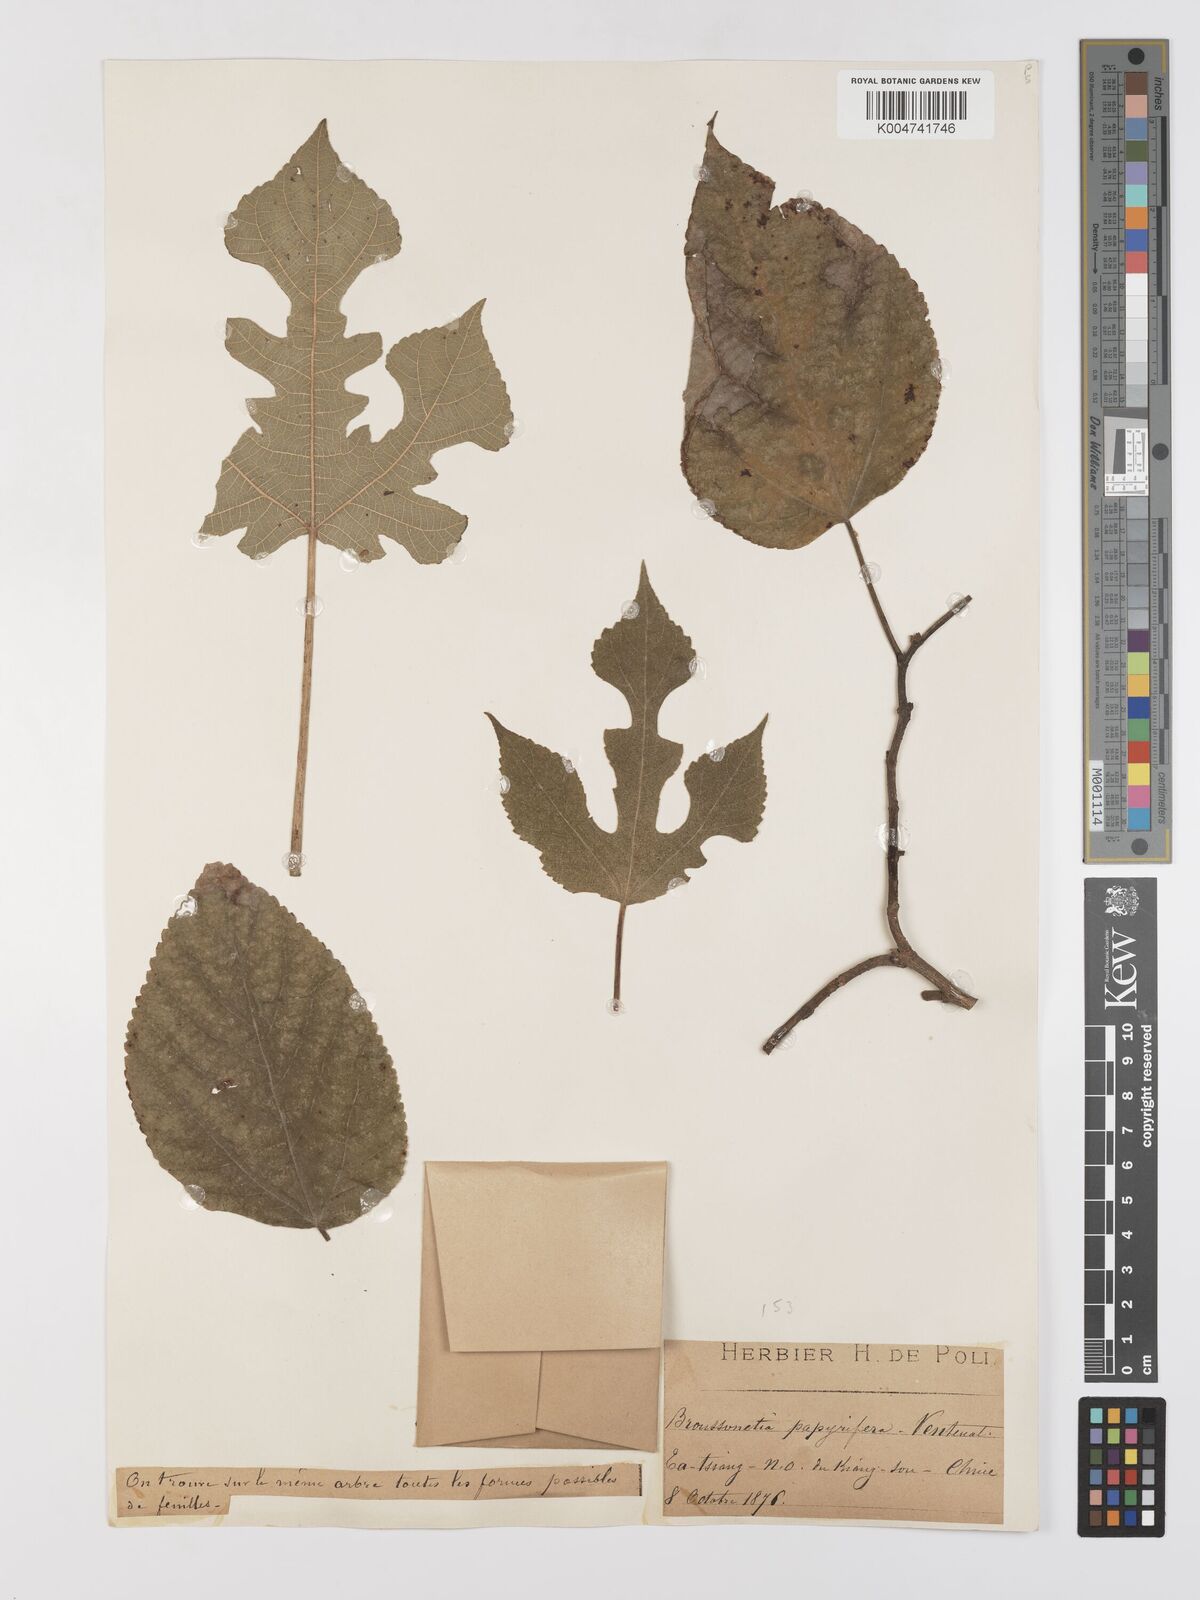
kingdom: Plantae
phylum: Tracheophyta
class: Magnoliopsida
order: Rosales
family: Moraceae
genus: Broussonetia
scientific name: Broussonetia
